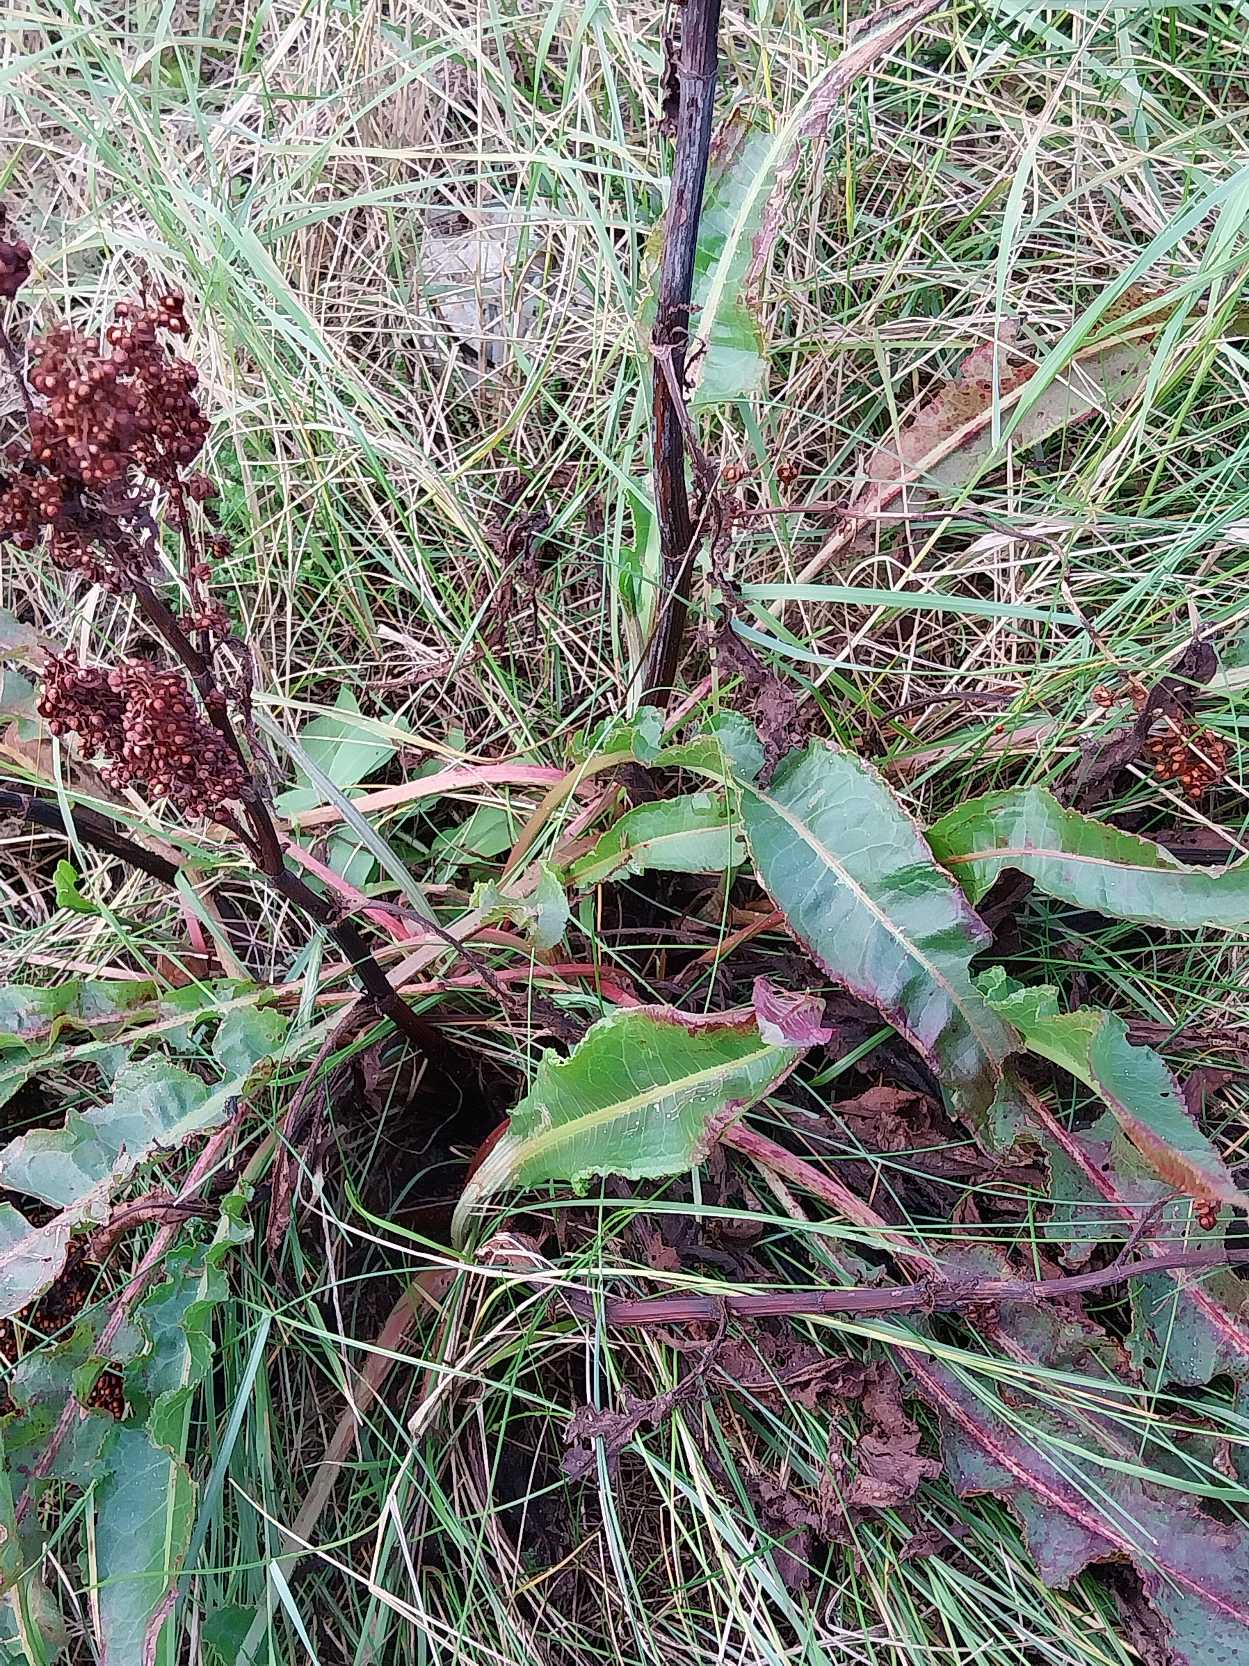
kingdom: Plantae
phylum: Tracheophyta
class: Magnoliopsida
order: Caryophyllales
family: Polygonaceae
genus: Rumex
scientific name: Rumex crispus
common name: Kruset skræppe
